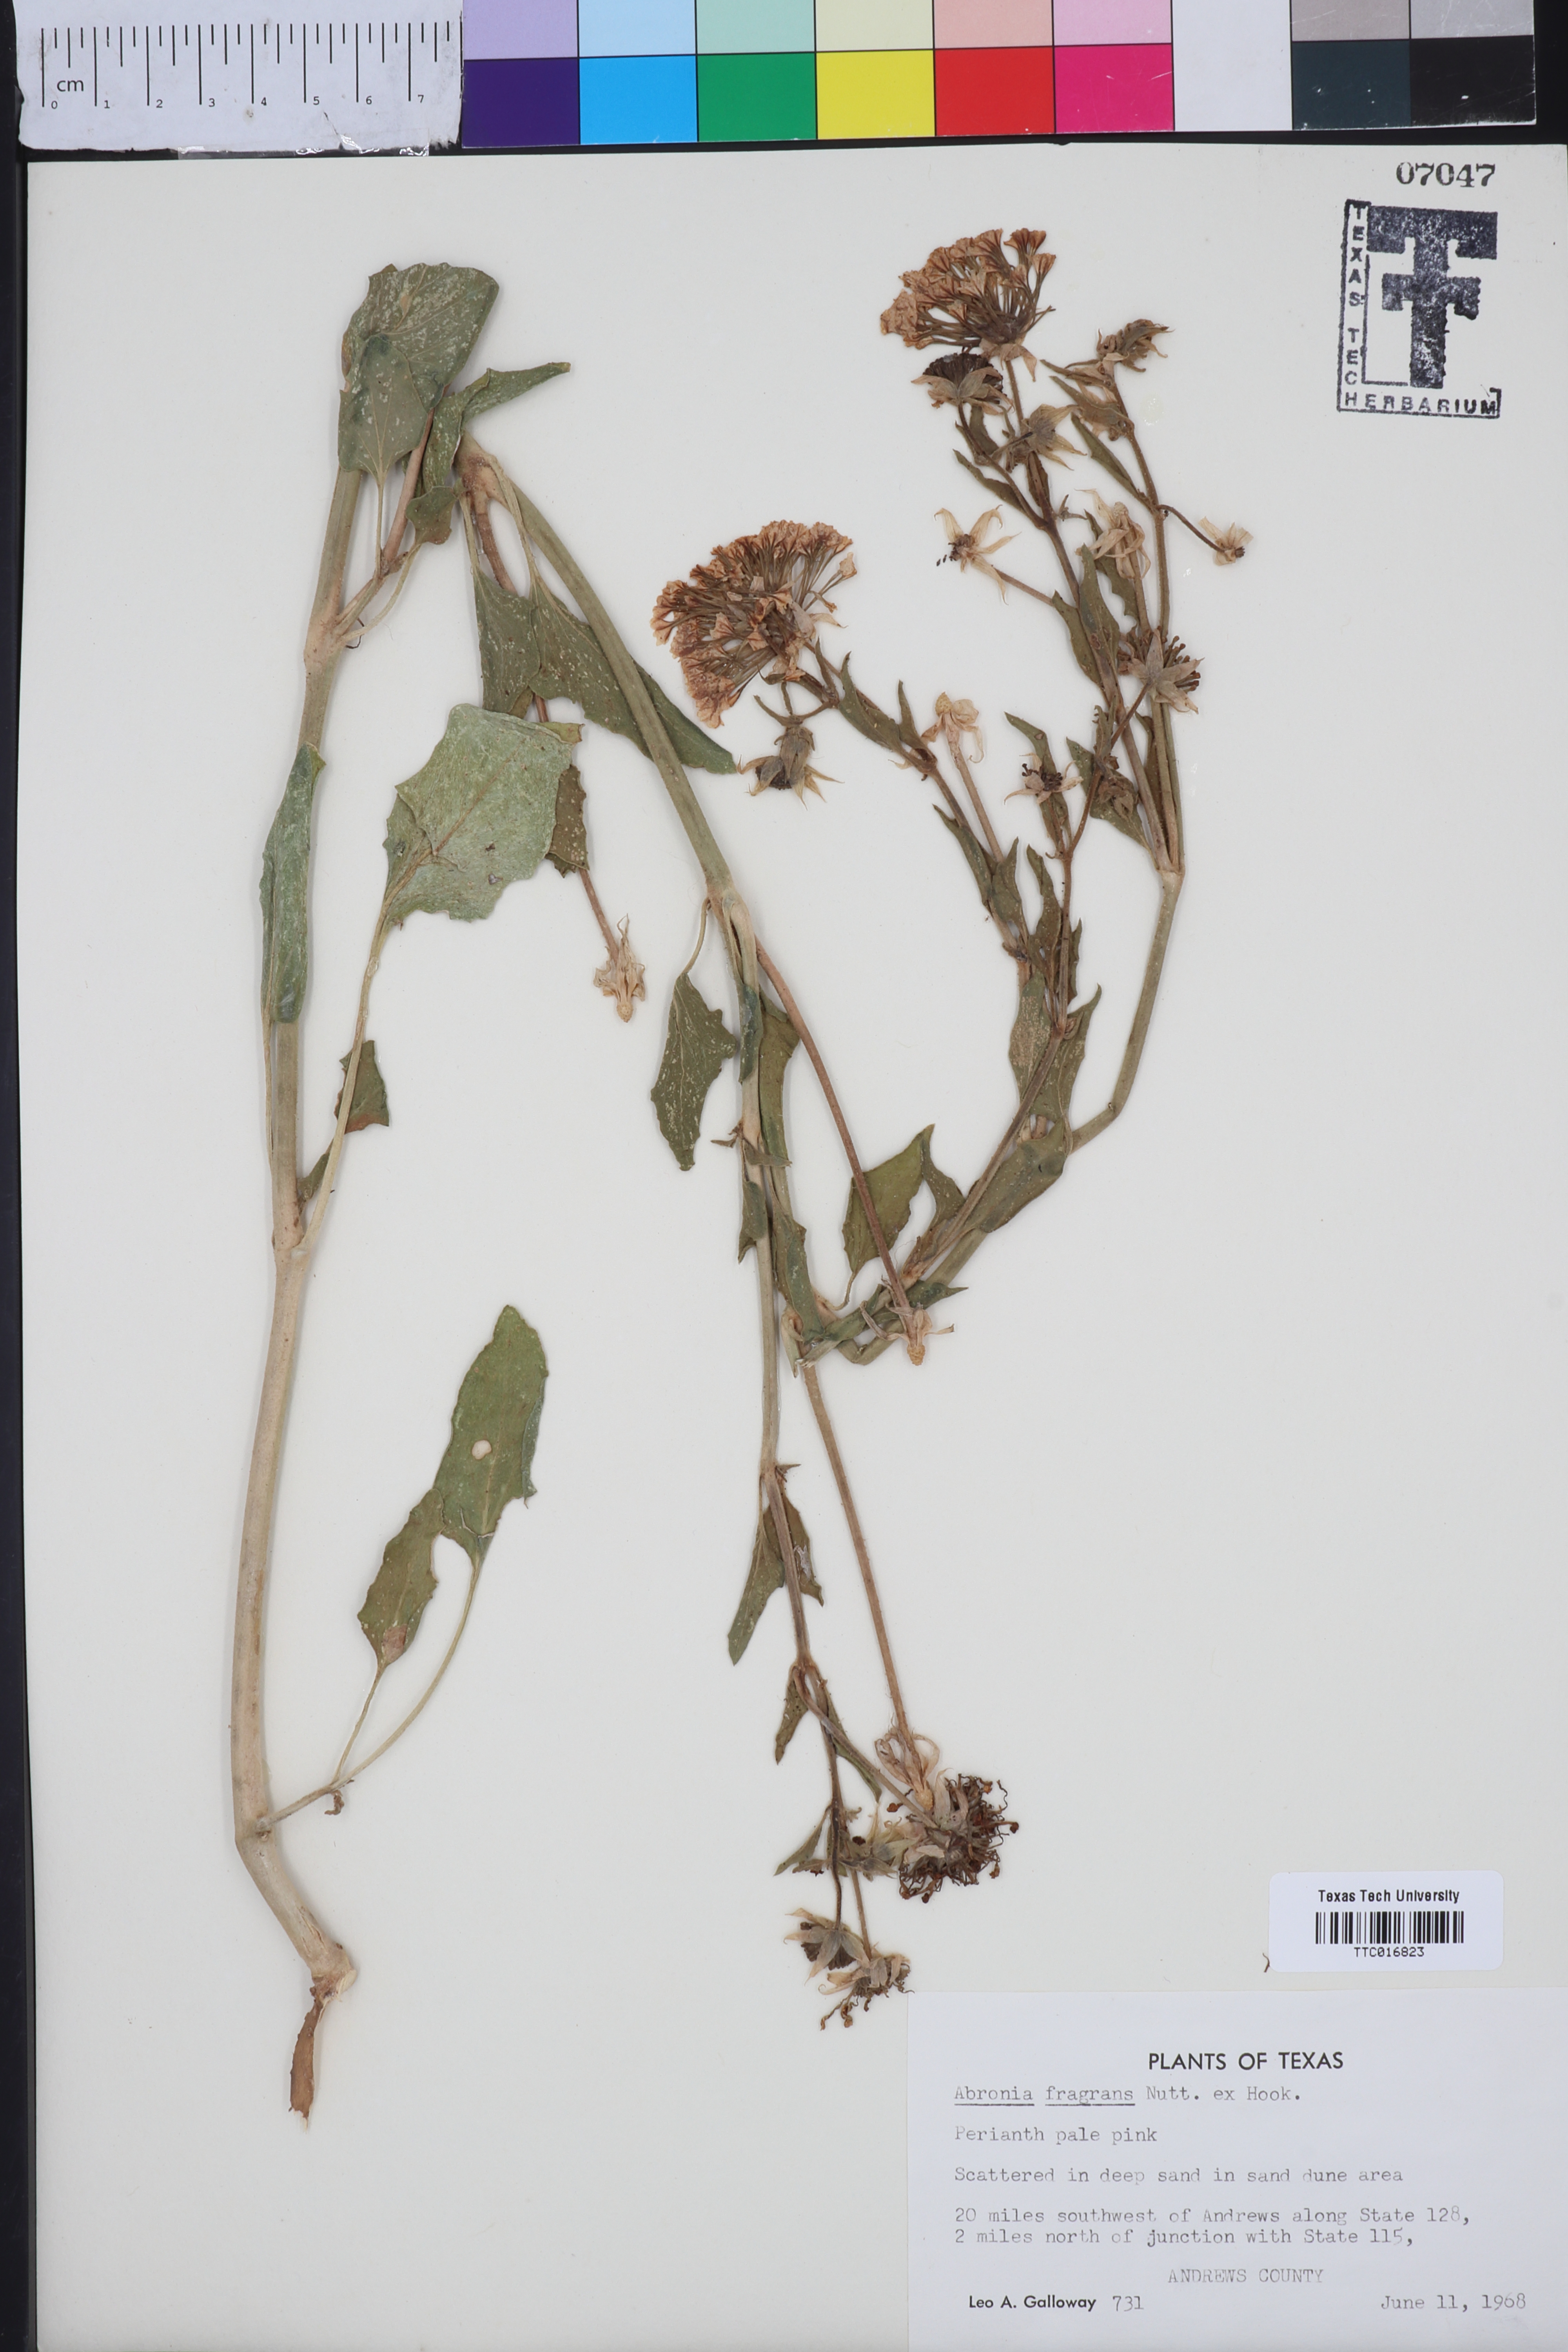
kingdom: Plantae
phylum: Tracheophyta
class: Magnoliopsida
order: Caryophyllales
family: Nyctaginaceae
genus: Abronia
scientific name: Abronia fragrans
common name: Fragrant sand-verbena
